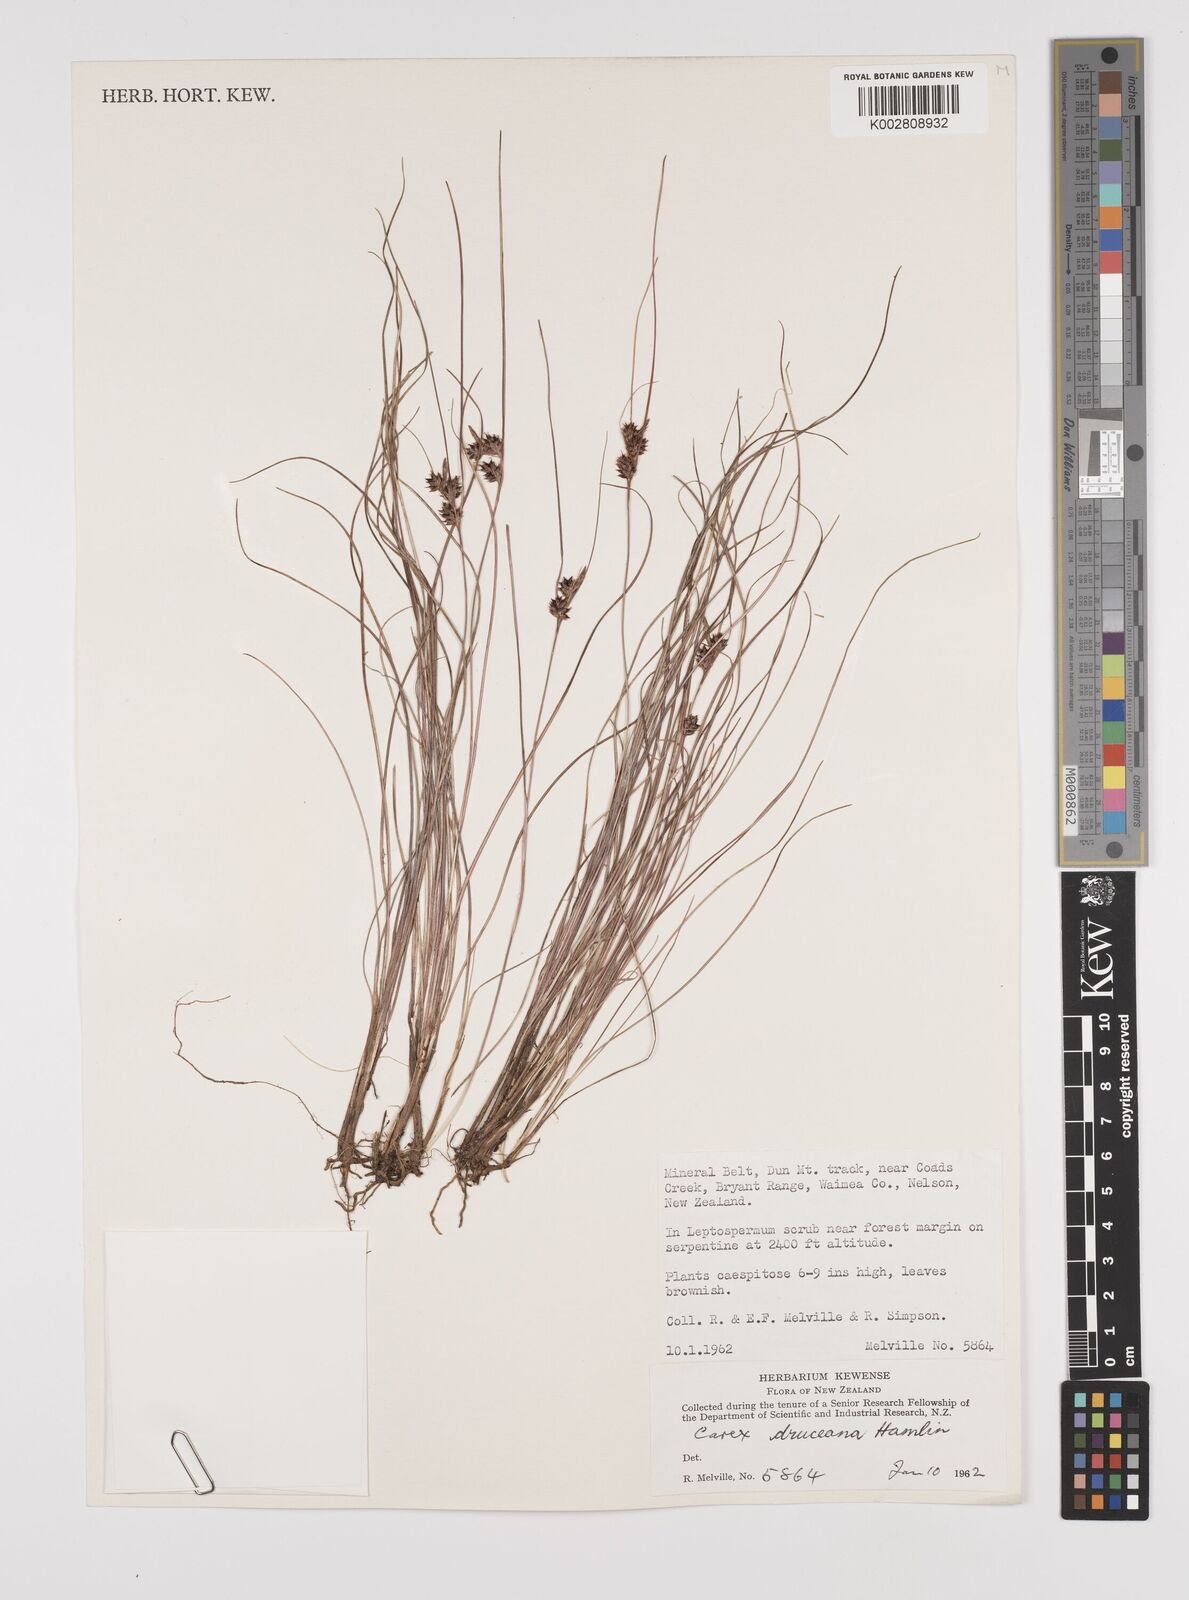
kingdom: Plantae
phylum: Tracheophyta
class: Liliopsida
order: Poales
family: Cyperaceae
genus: Carex
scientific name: Carex druceana
